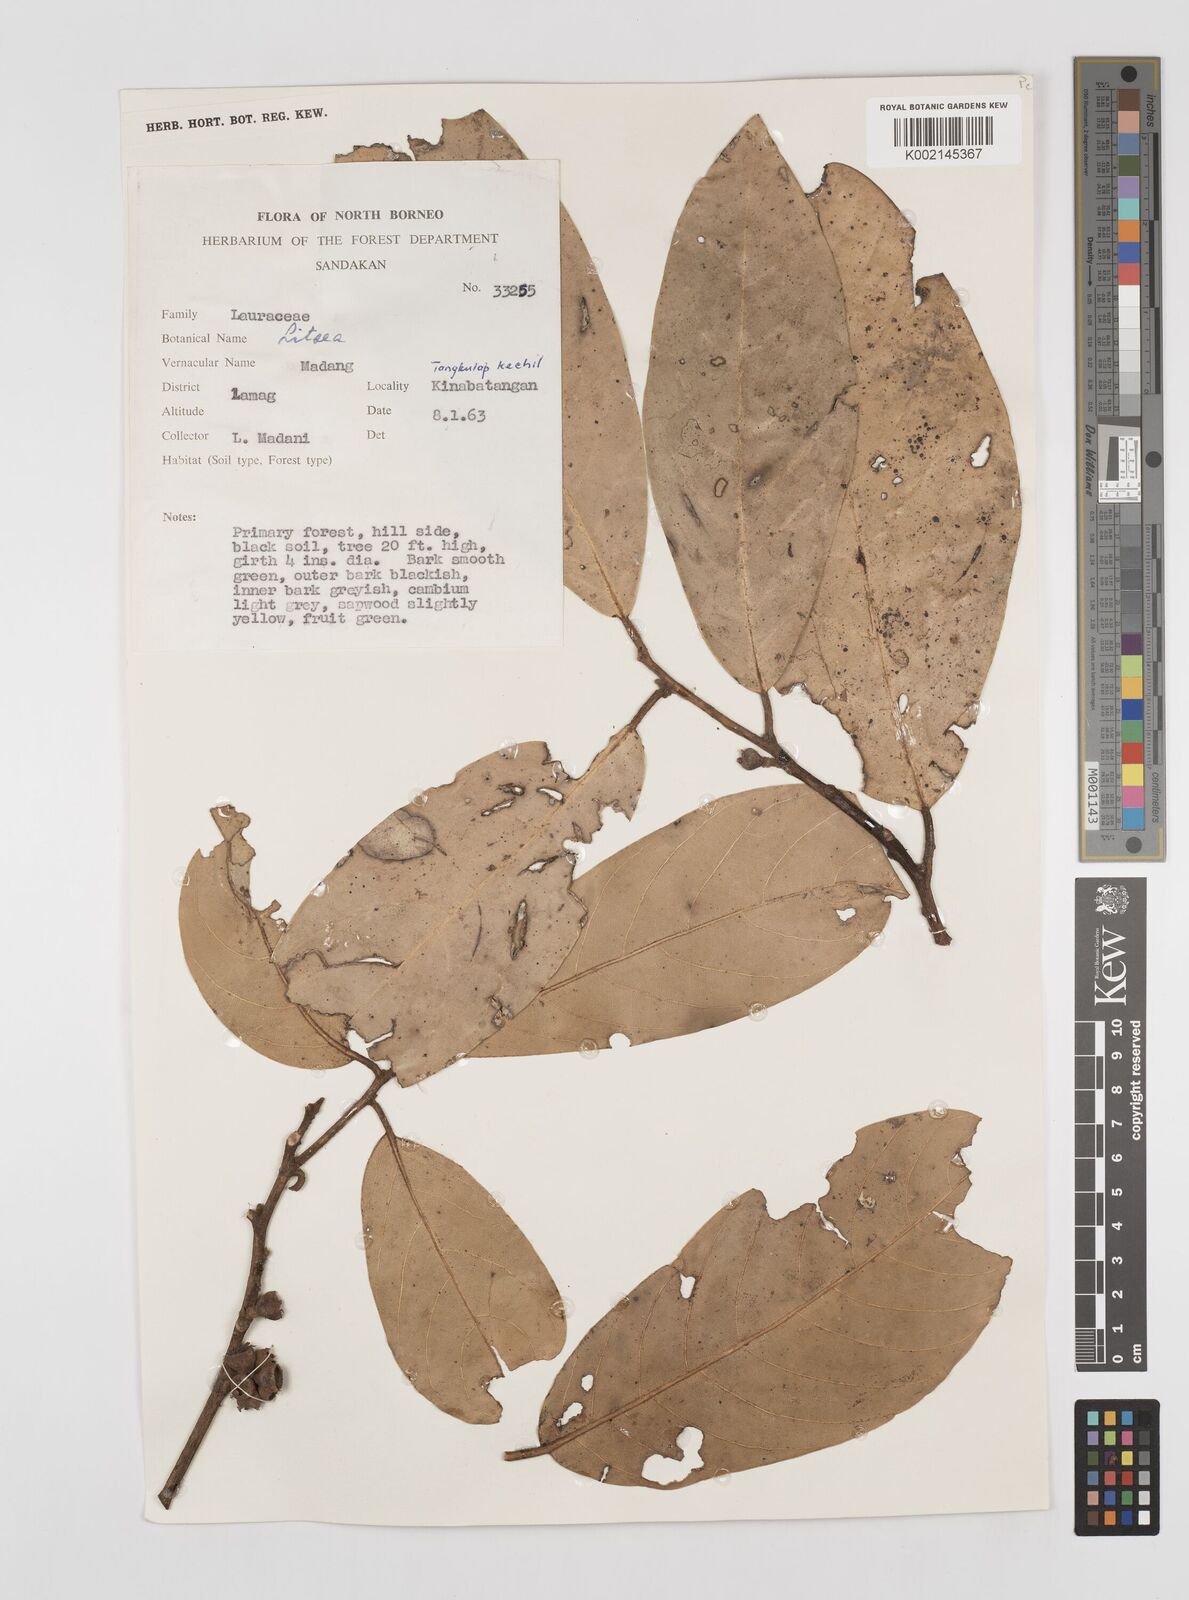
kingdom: Plantae
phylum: Tracheophyta
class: Magnoliopsida
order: Laurales
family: Lauraceae
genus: Litsea
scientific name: Litsea
